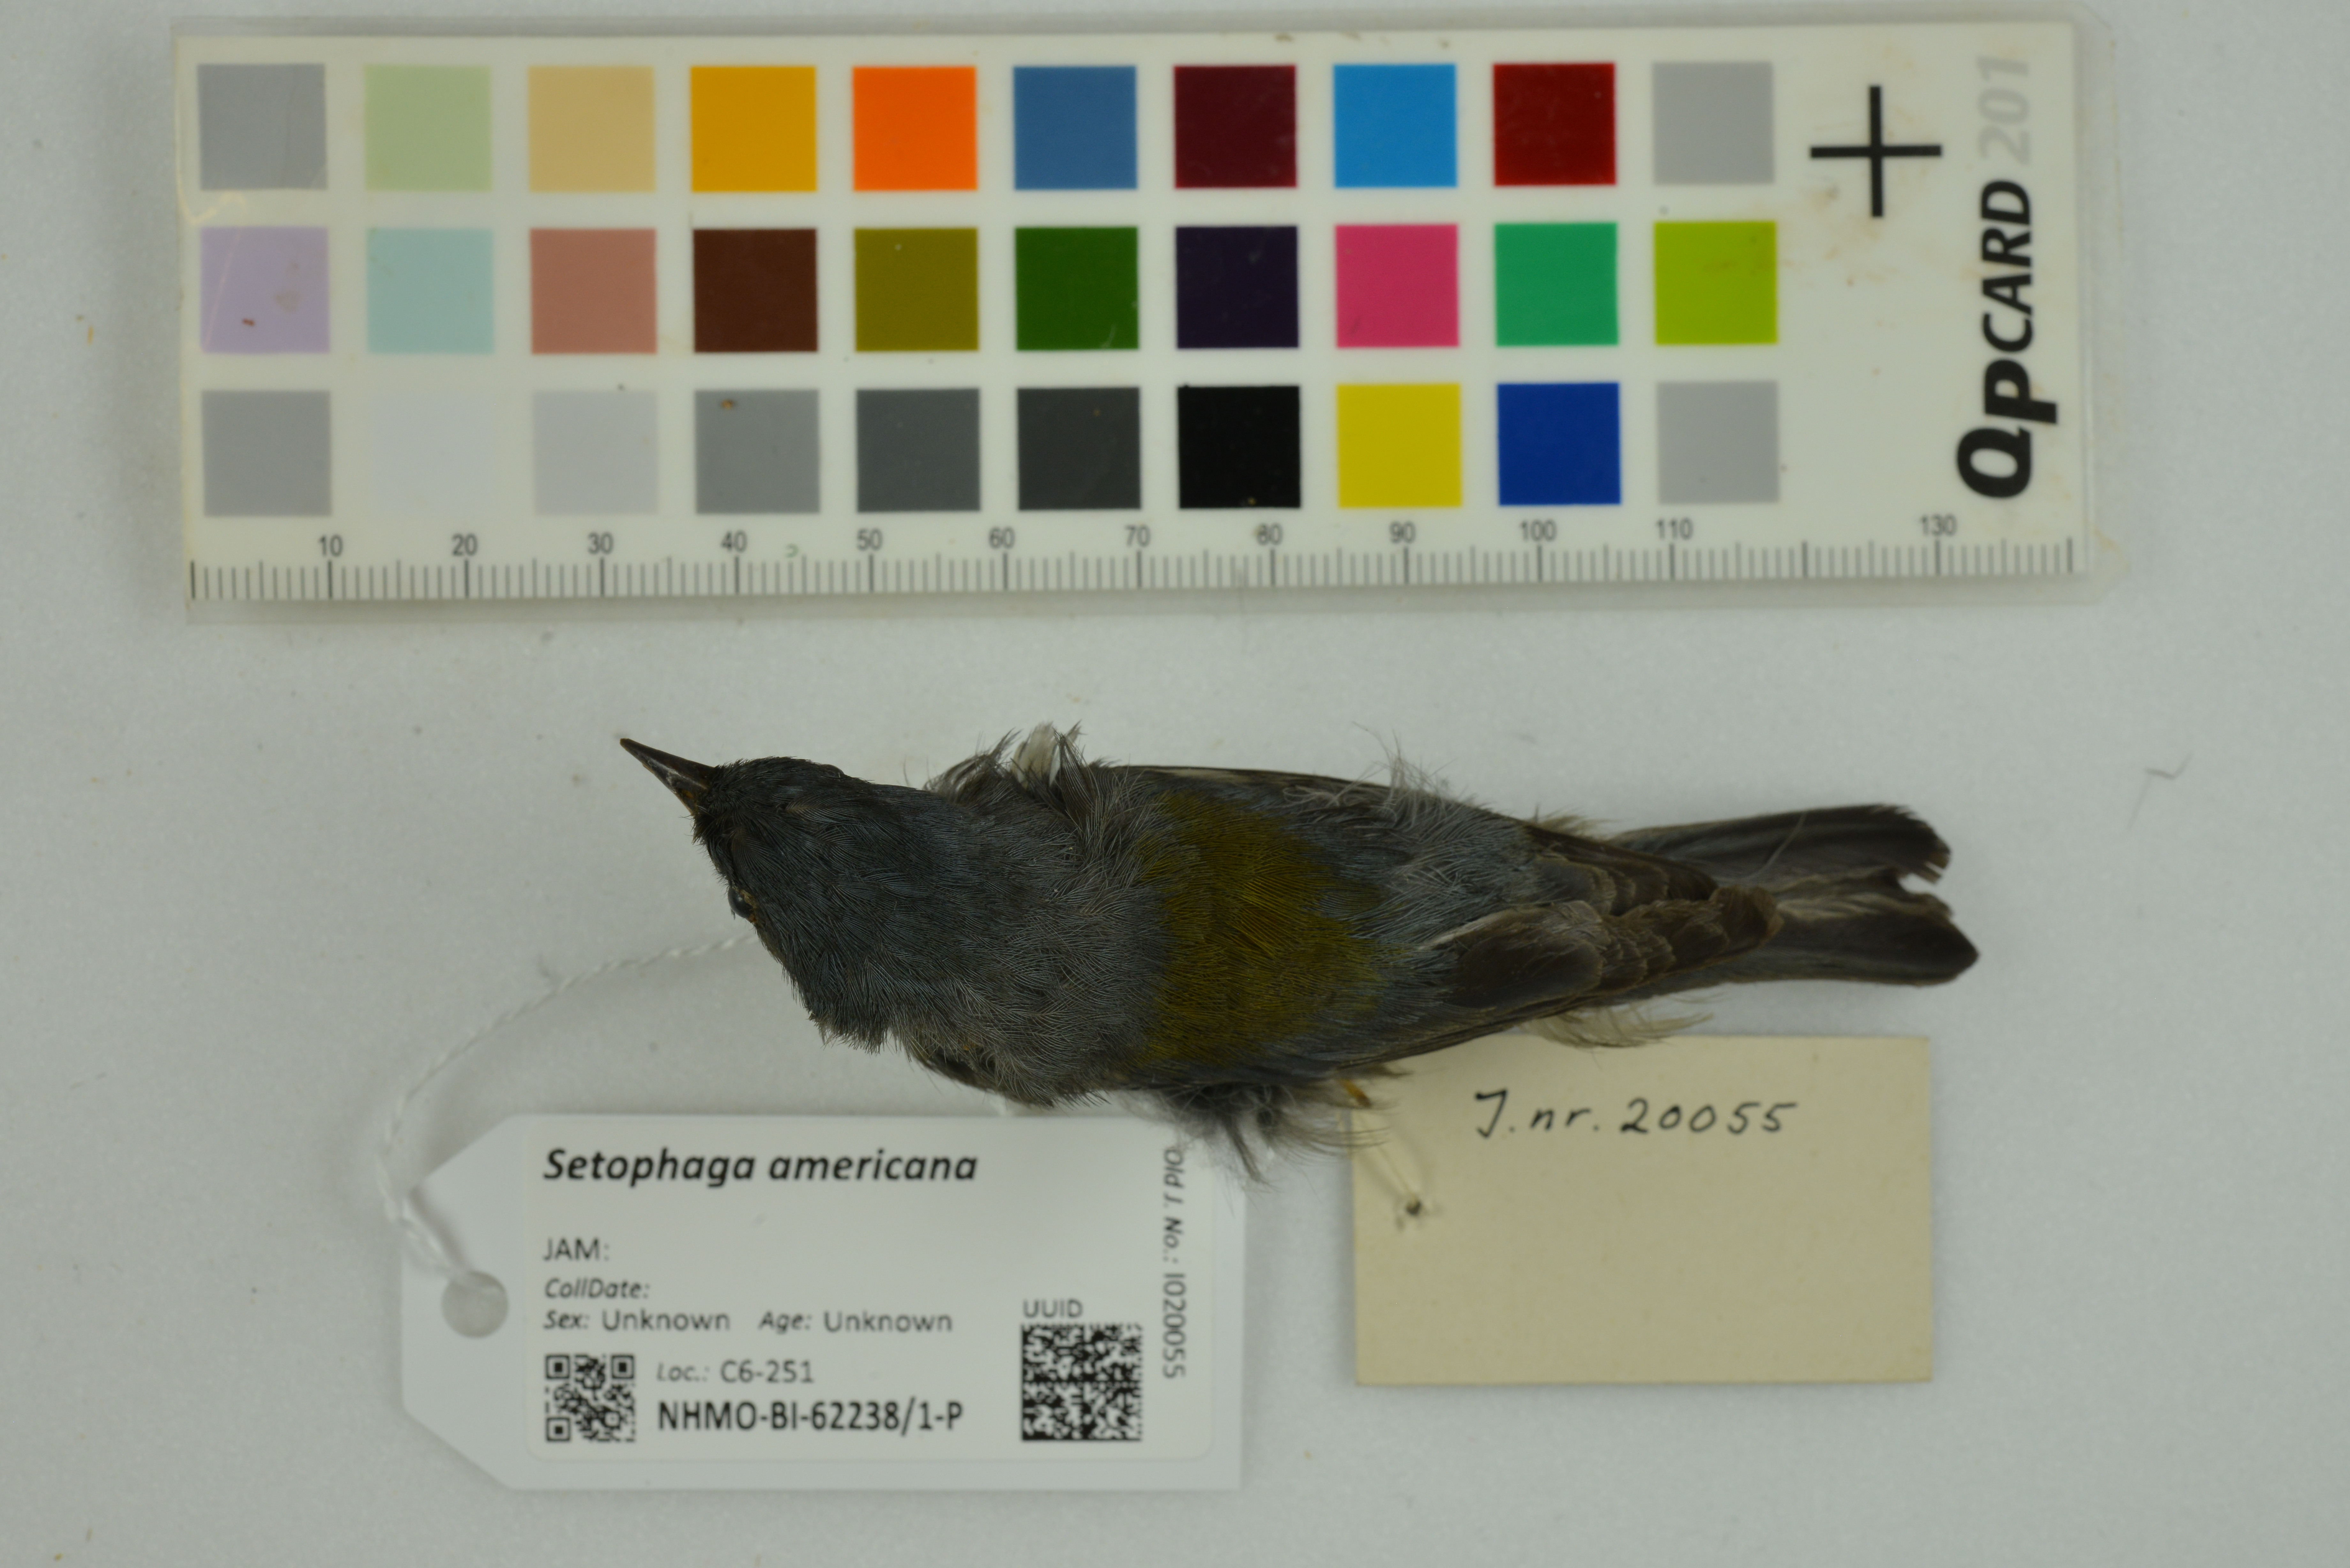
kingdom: Animalia
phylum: Chordata
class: Aves
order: Passeriformes
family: Parulidae
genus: Setophaga
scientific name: Setophaga americana
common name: Northern parula
